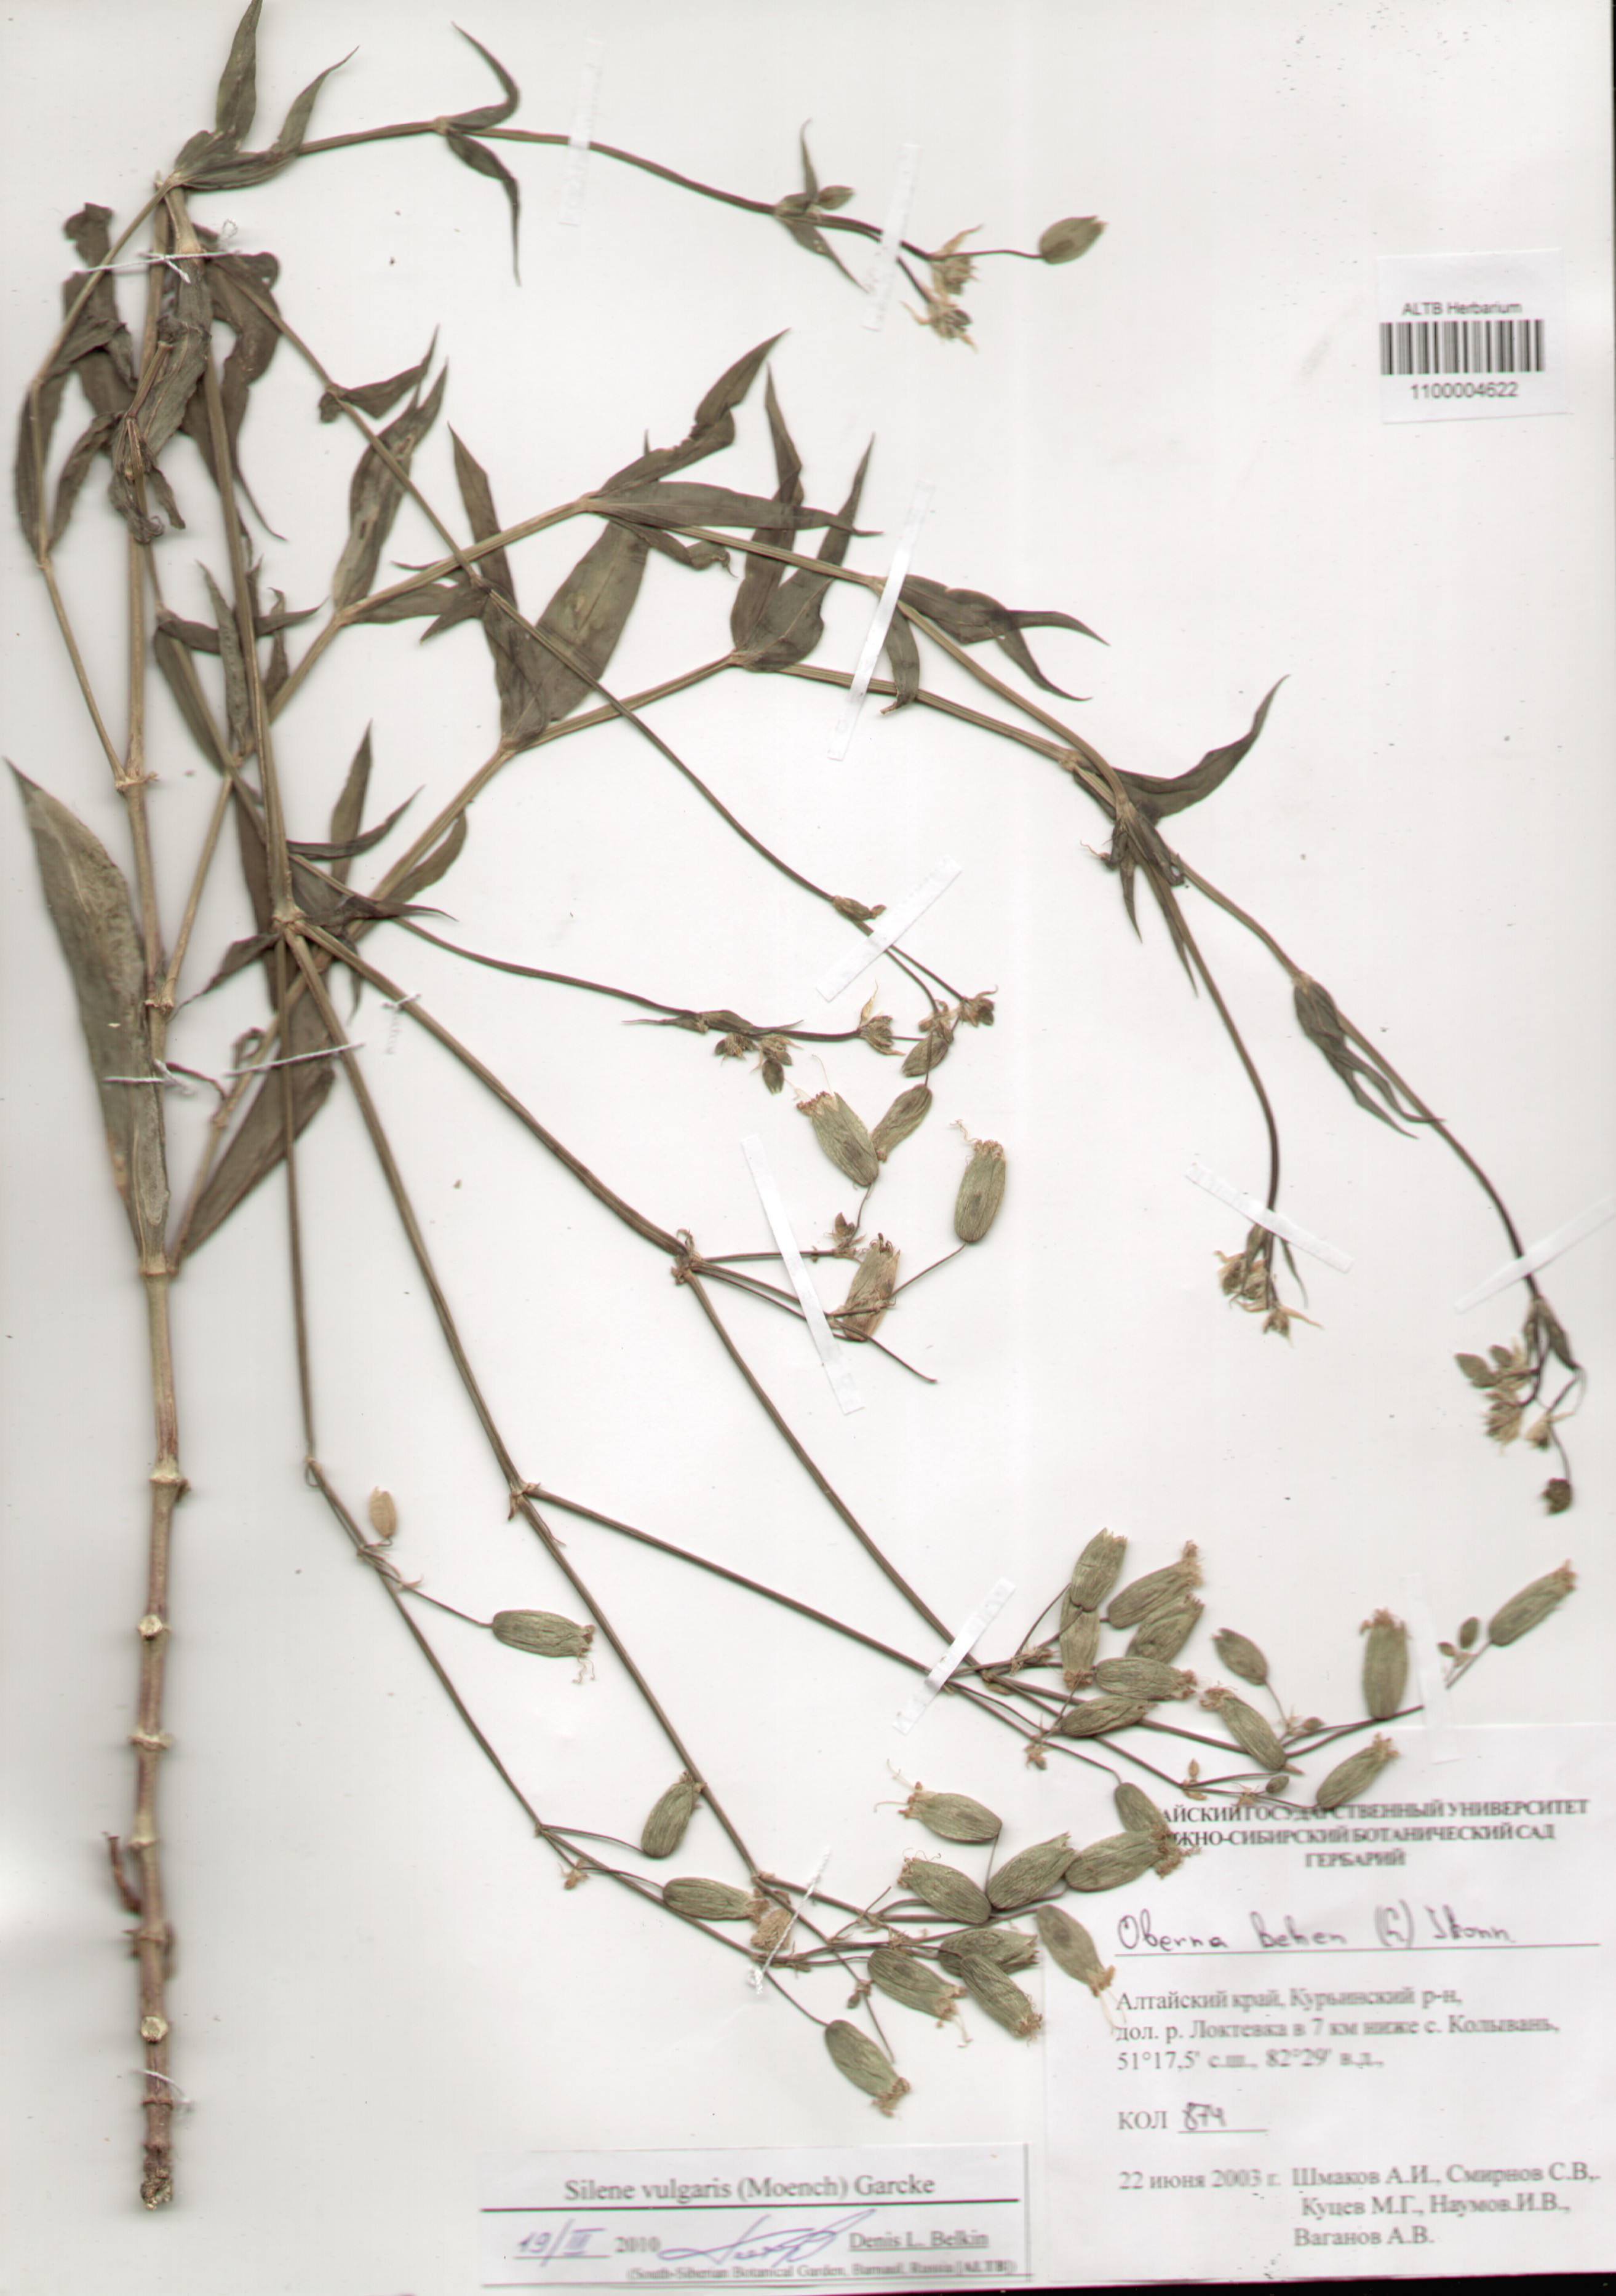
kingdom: Plantae
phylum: Tracheophyta
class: Magnoliopsida
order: Caryophyllales
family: Caryophyllaceae
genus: Silene
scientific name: Silene vulgaris
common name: Bladder campion
